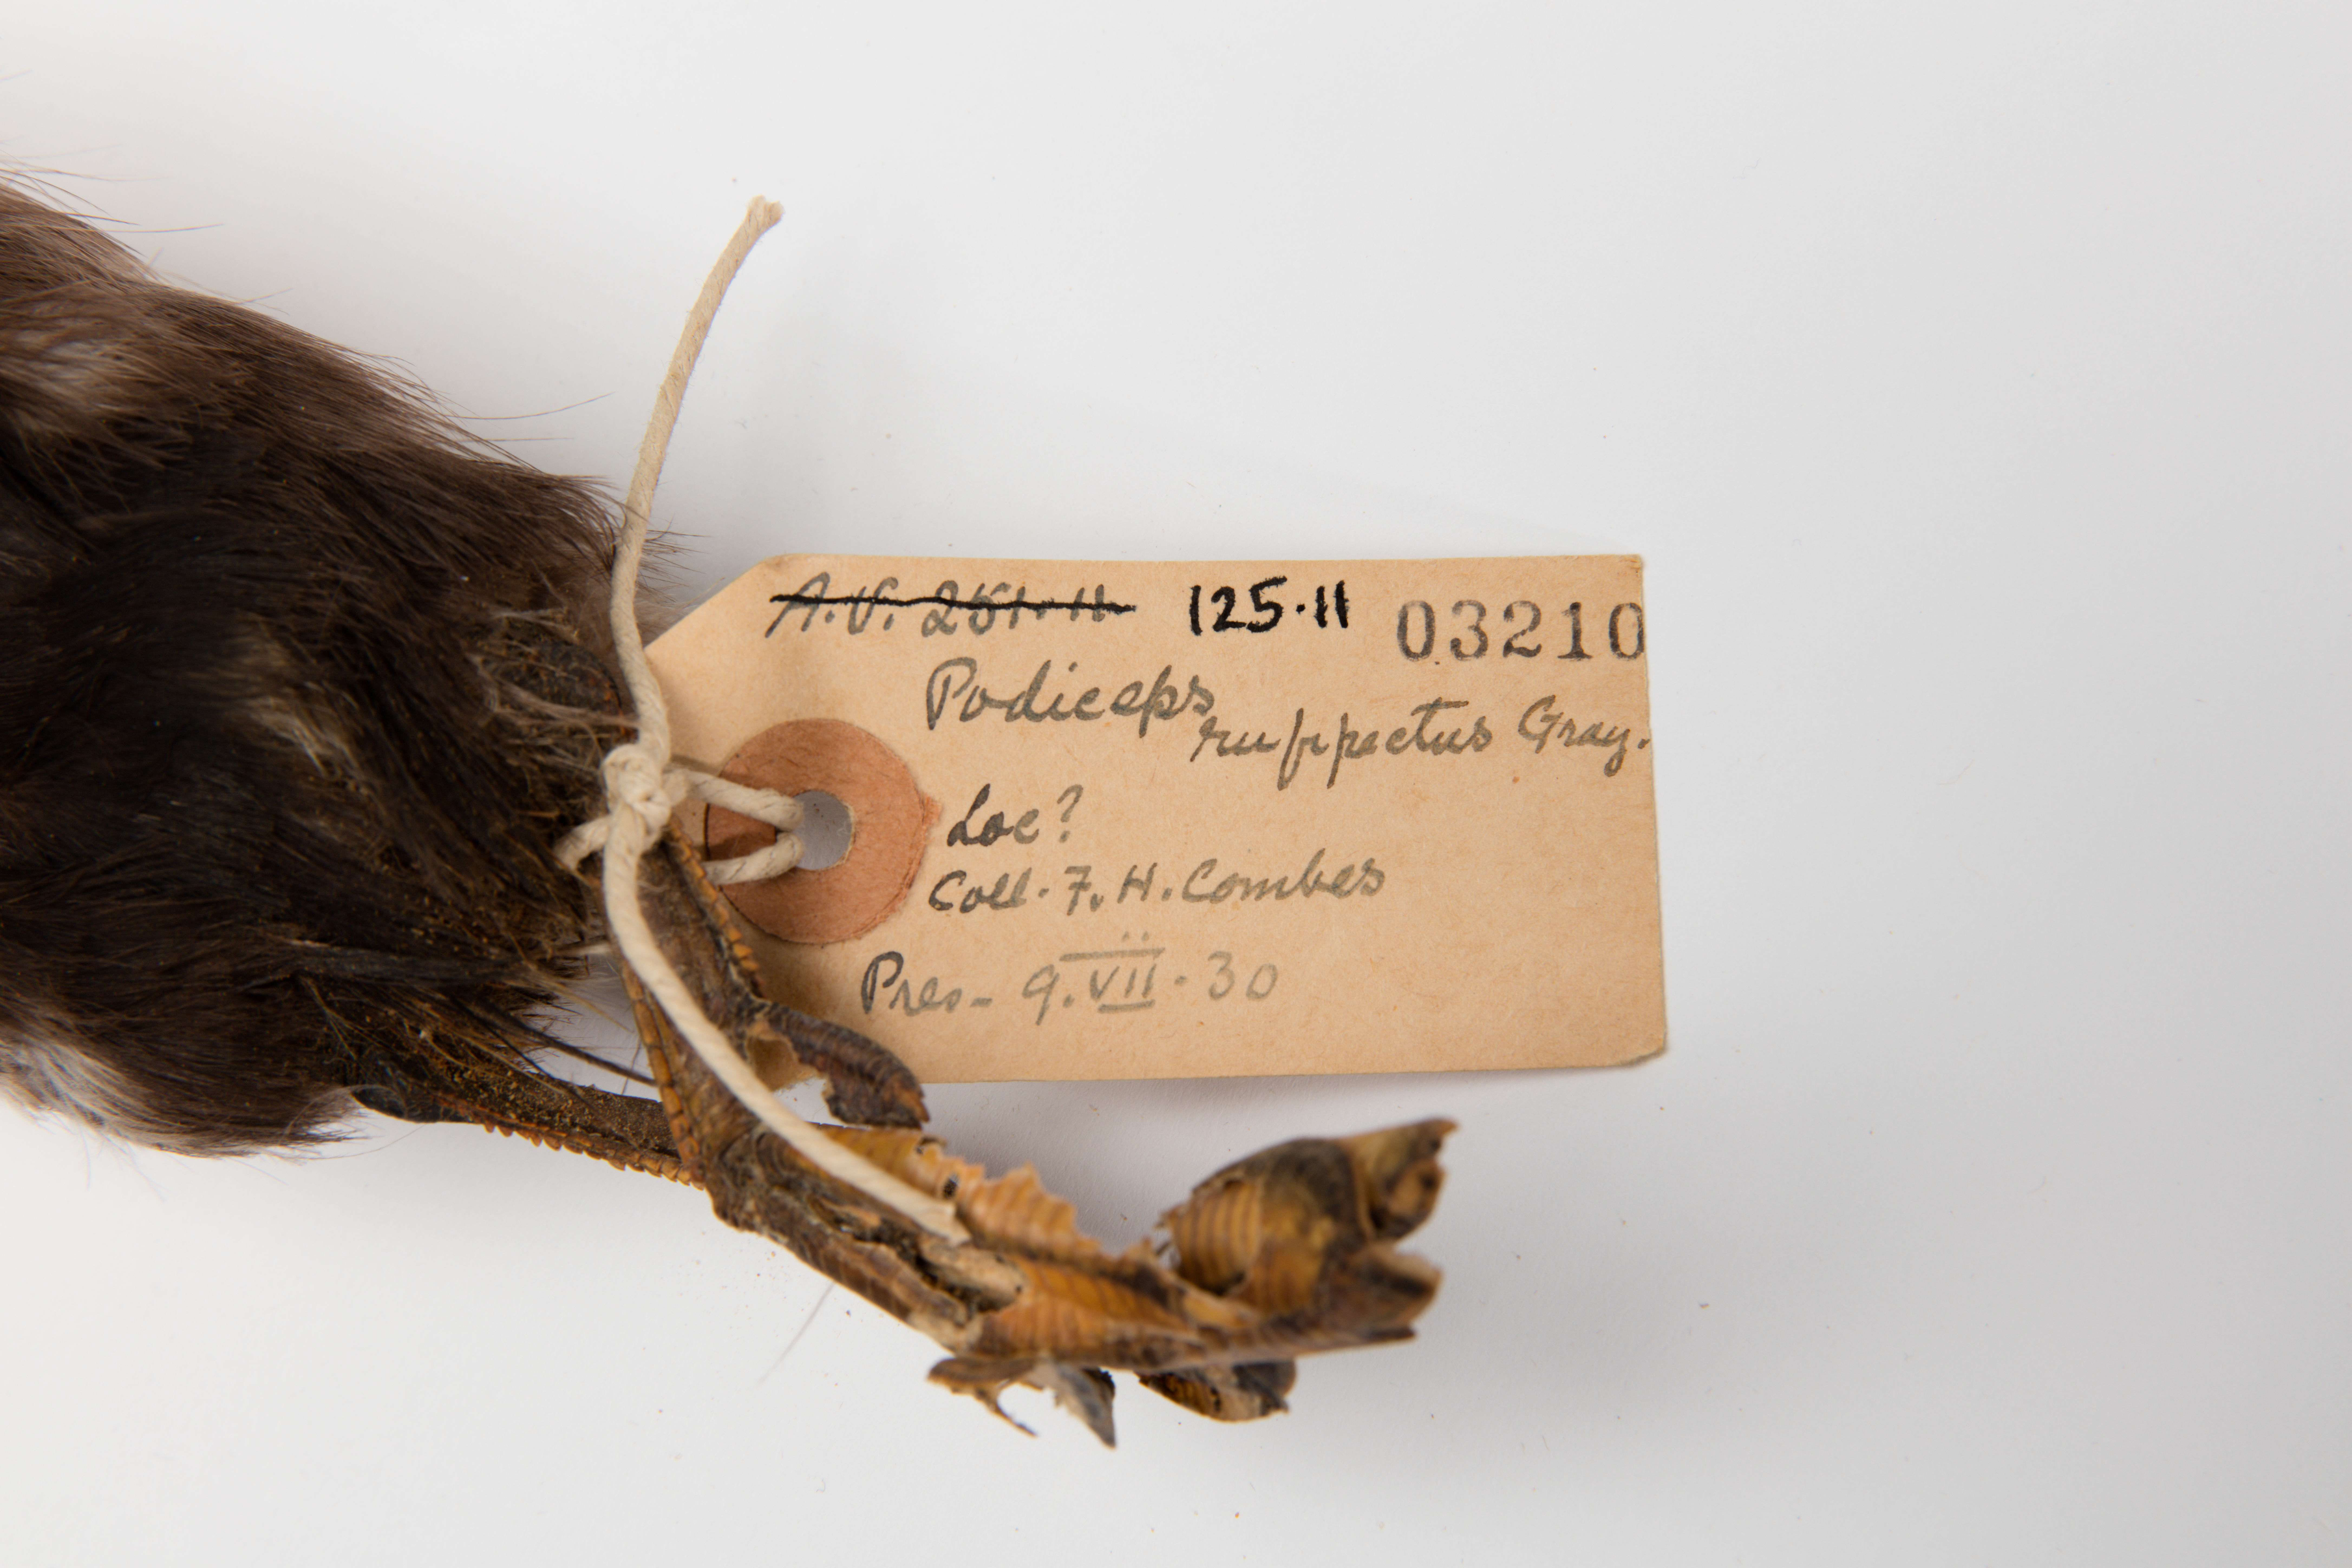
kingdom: Animalia
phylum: Chordata
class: Aves
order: Podicipediformes
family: Podicipedidae
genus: Poliocephalus
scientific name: Poliocephalus rufopectus
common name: New zealand grebe
